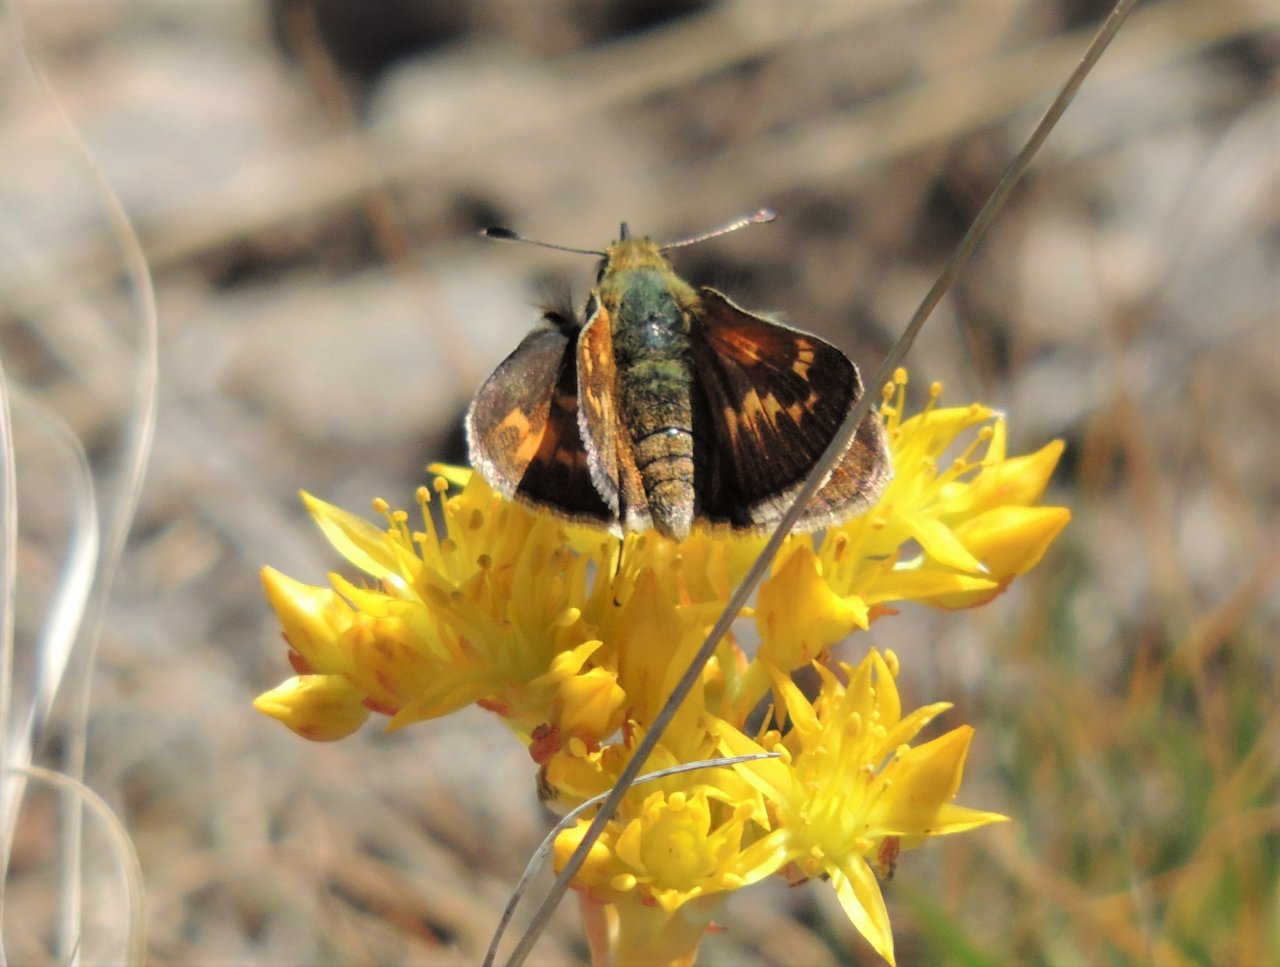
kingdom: Animalia
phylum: Arthropoda
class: Insecta
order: Lepidoptera
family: Hesperiidae
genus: Ochlodes
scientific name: Ochlodes sylvanoides
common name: Woodland Skipper
